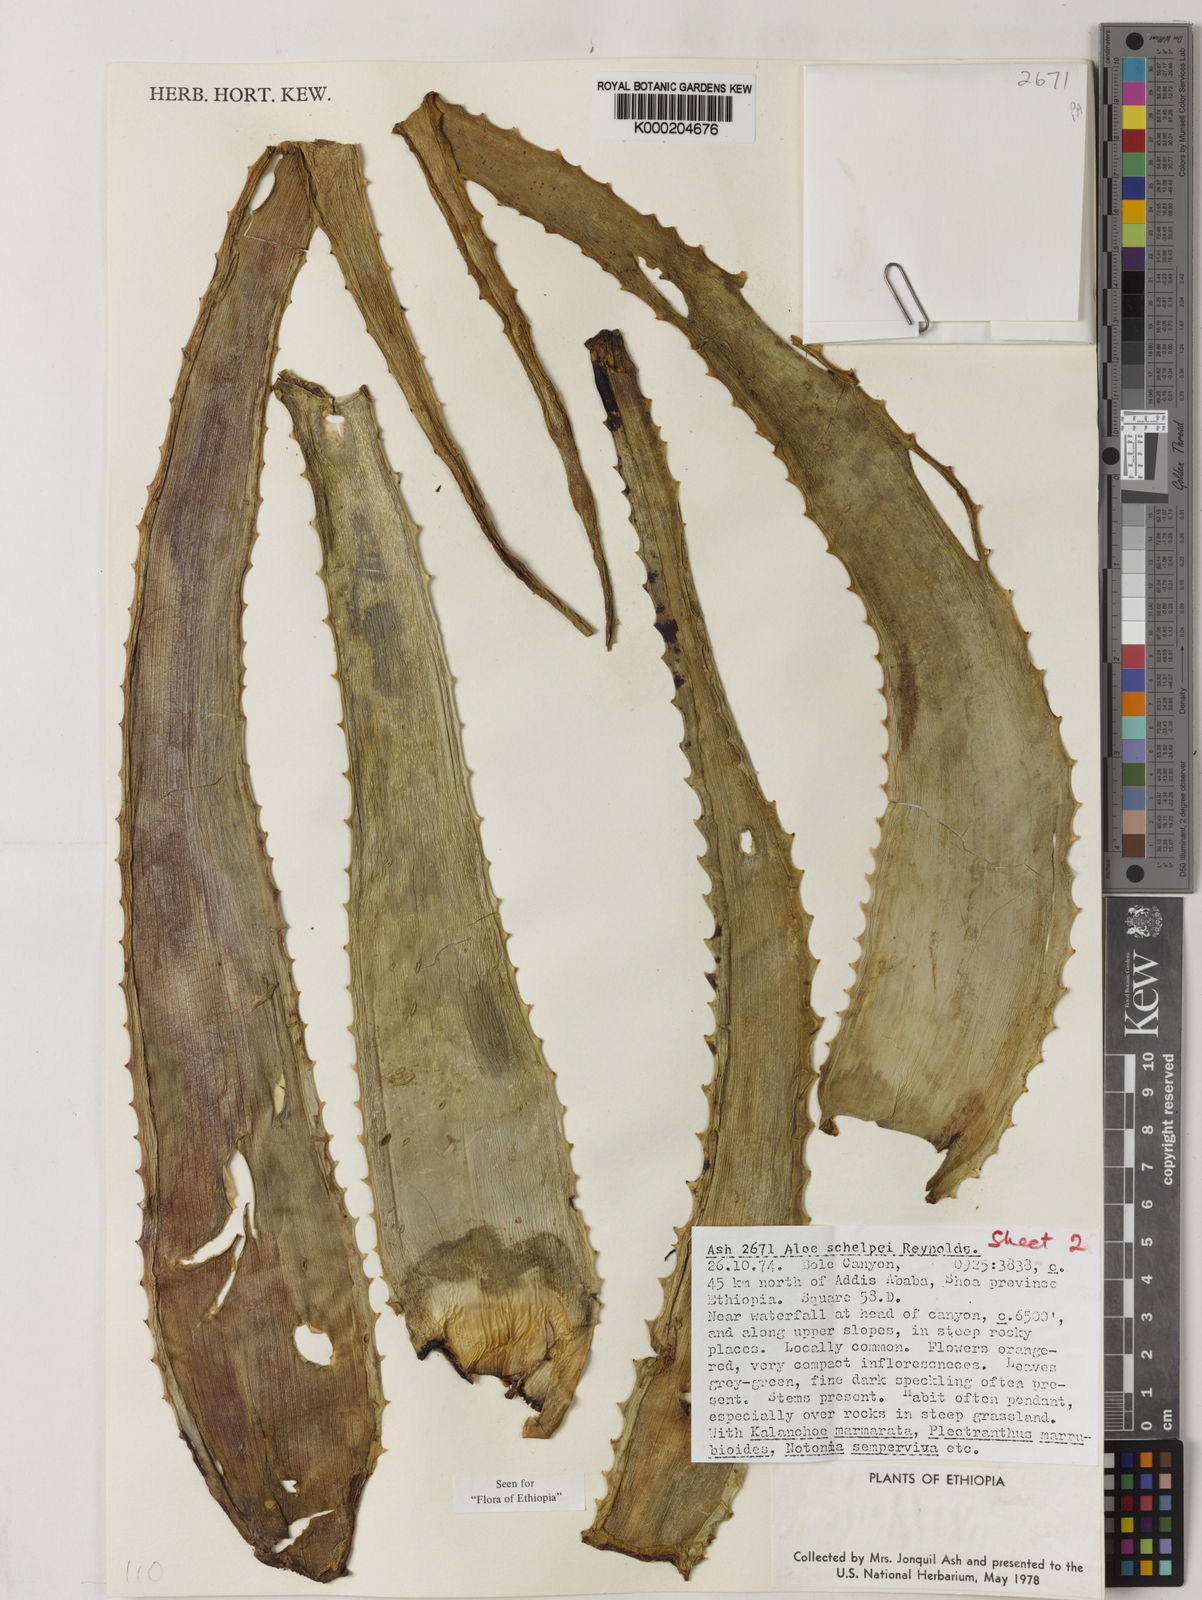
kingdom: Plantae
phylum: Tracheophyta
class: Liliopsida
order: Asparagales
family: Asphodelaceae
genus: Aloe
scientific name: Aloe schelpei
